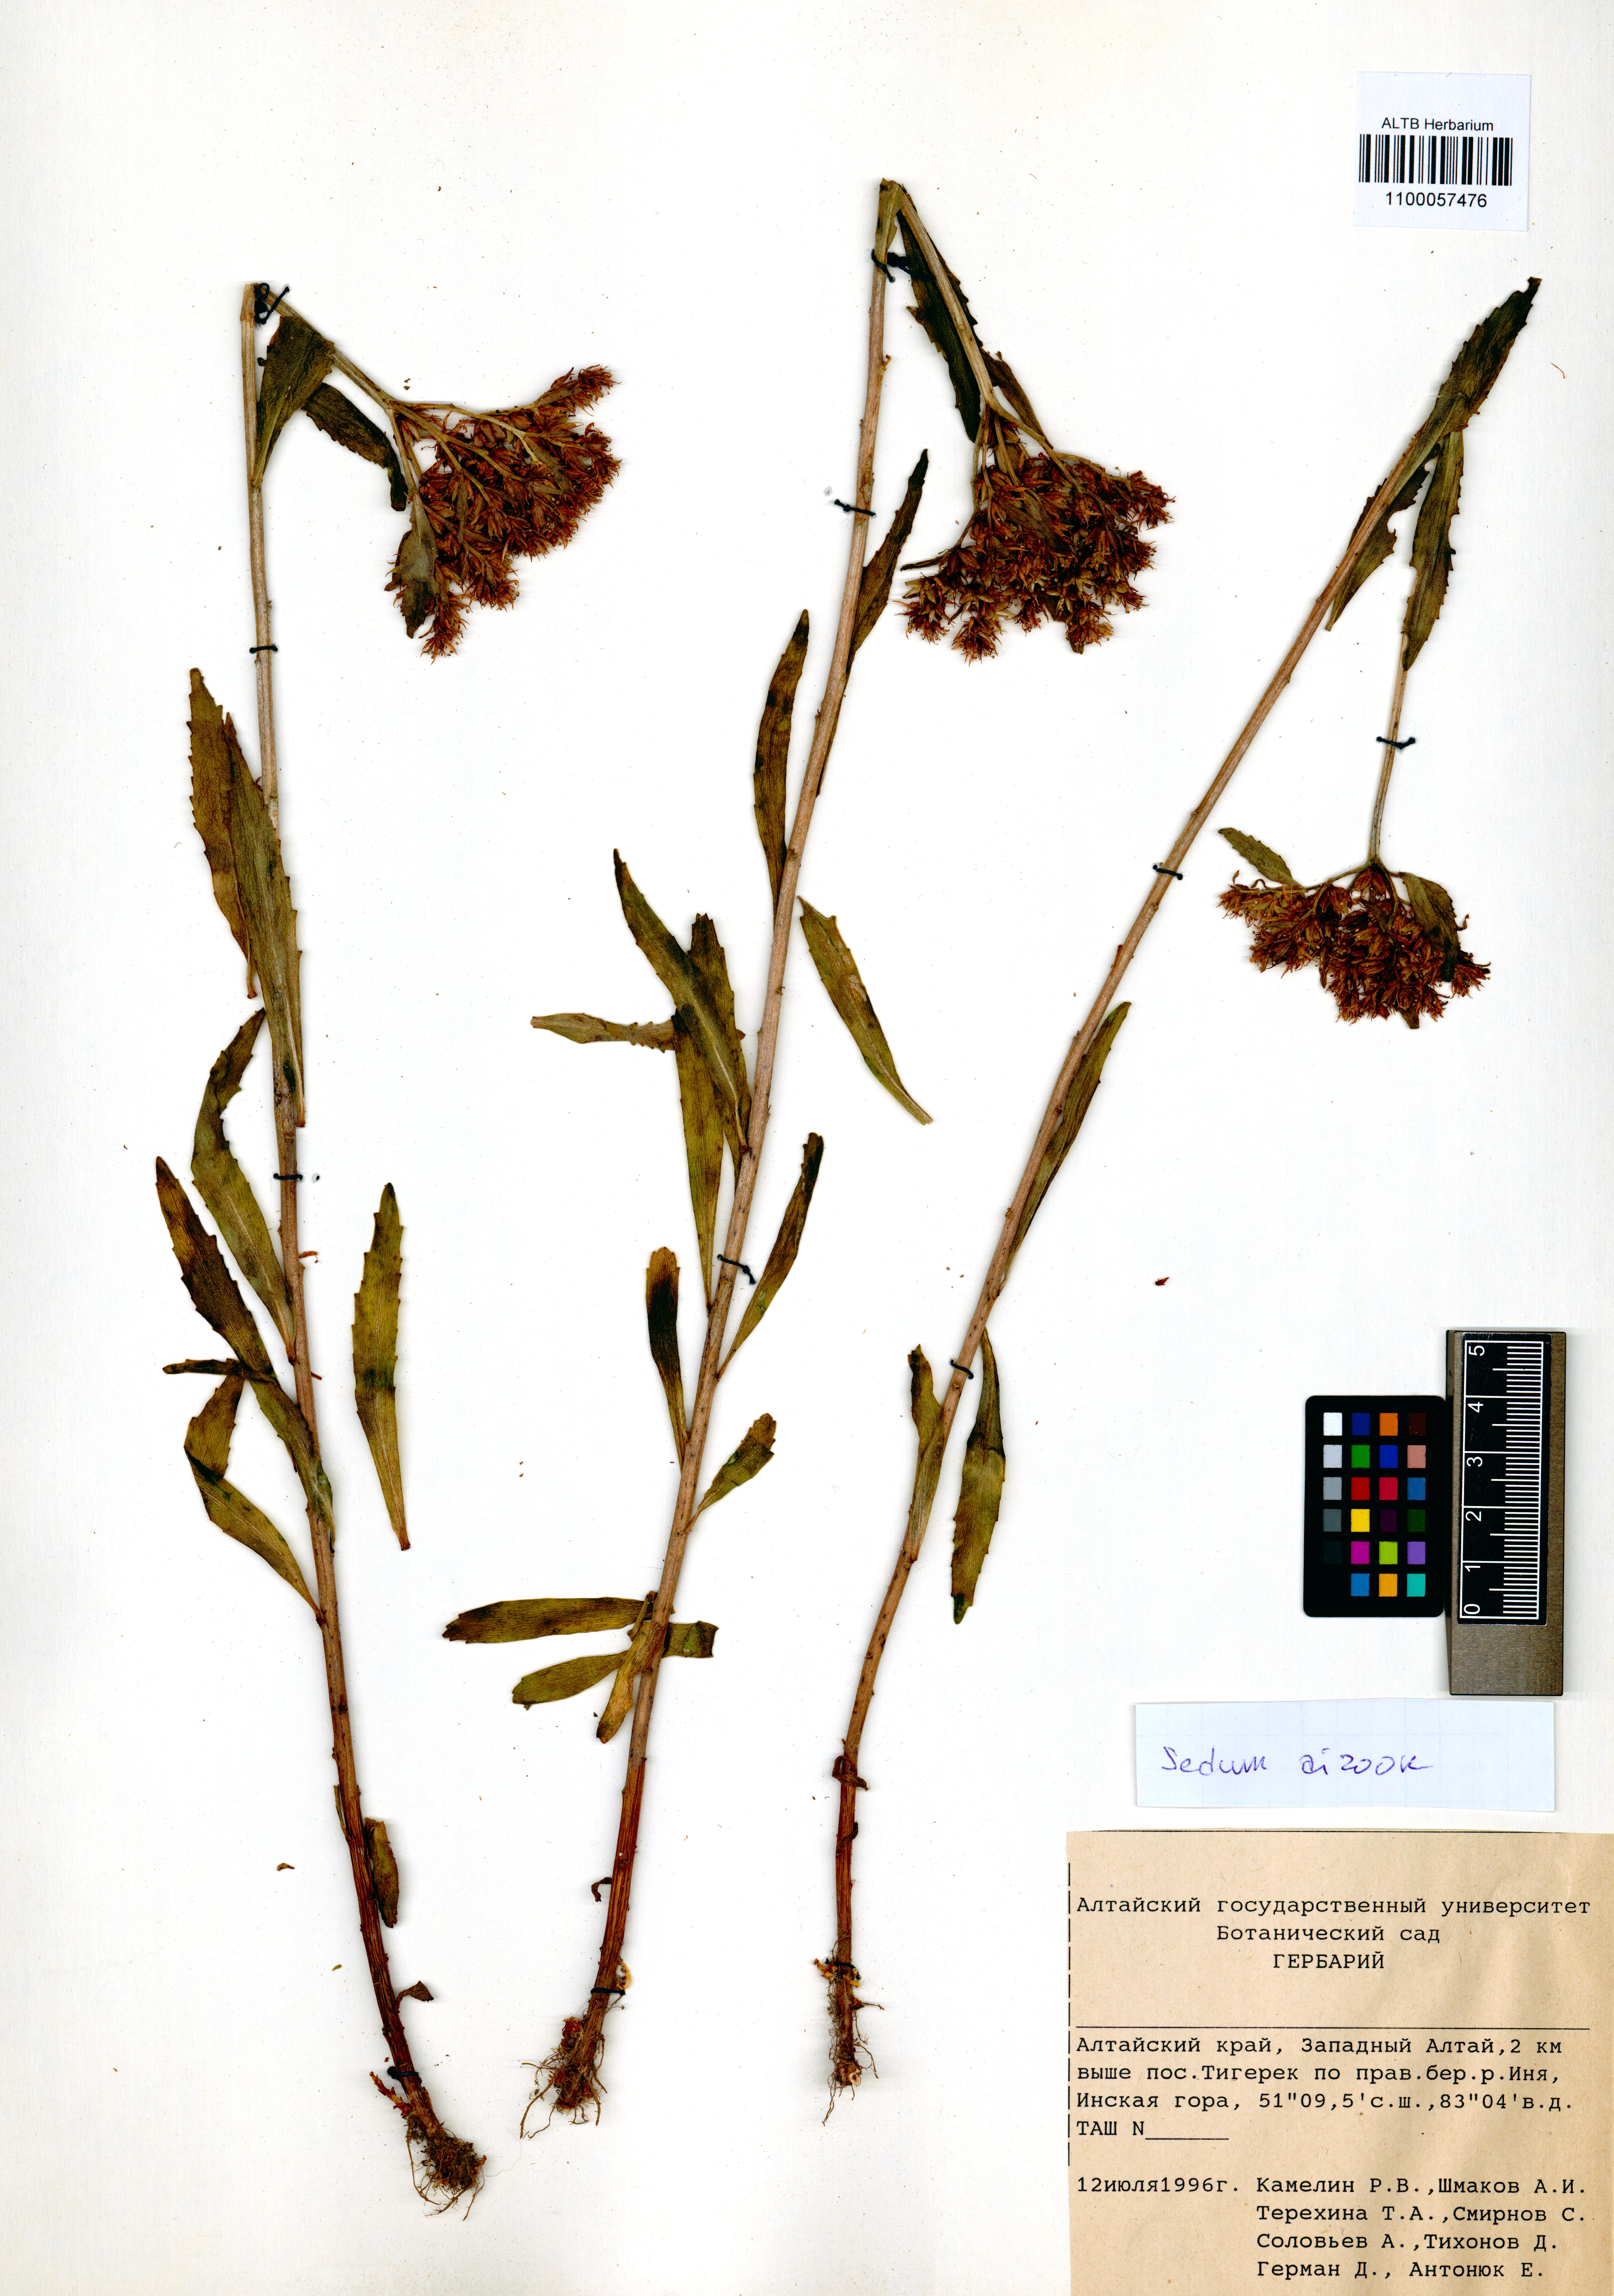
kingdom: Plantae
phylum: Tracheophyta
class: Magnoliopsida
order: Saxifragales
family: Crassulaceae
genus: Phedimus
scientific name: Phedimus aizoon
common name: Orpin aizoon
